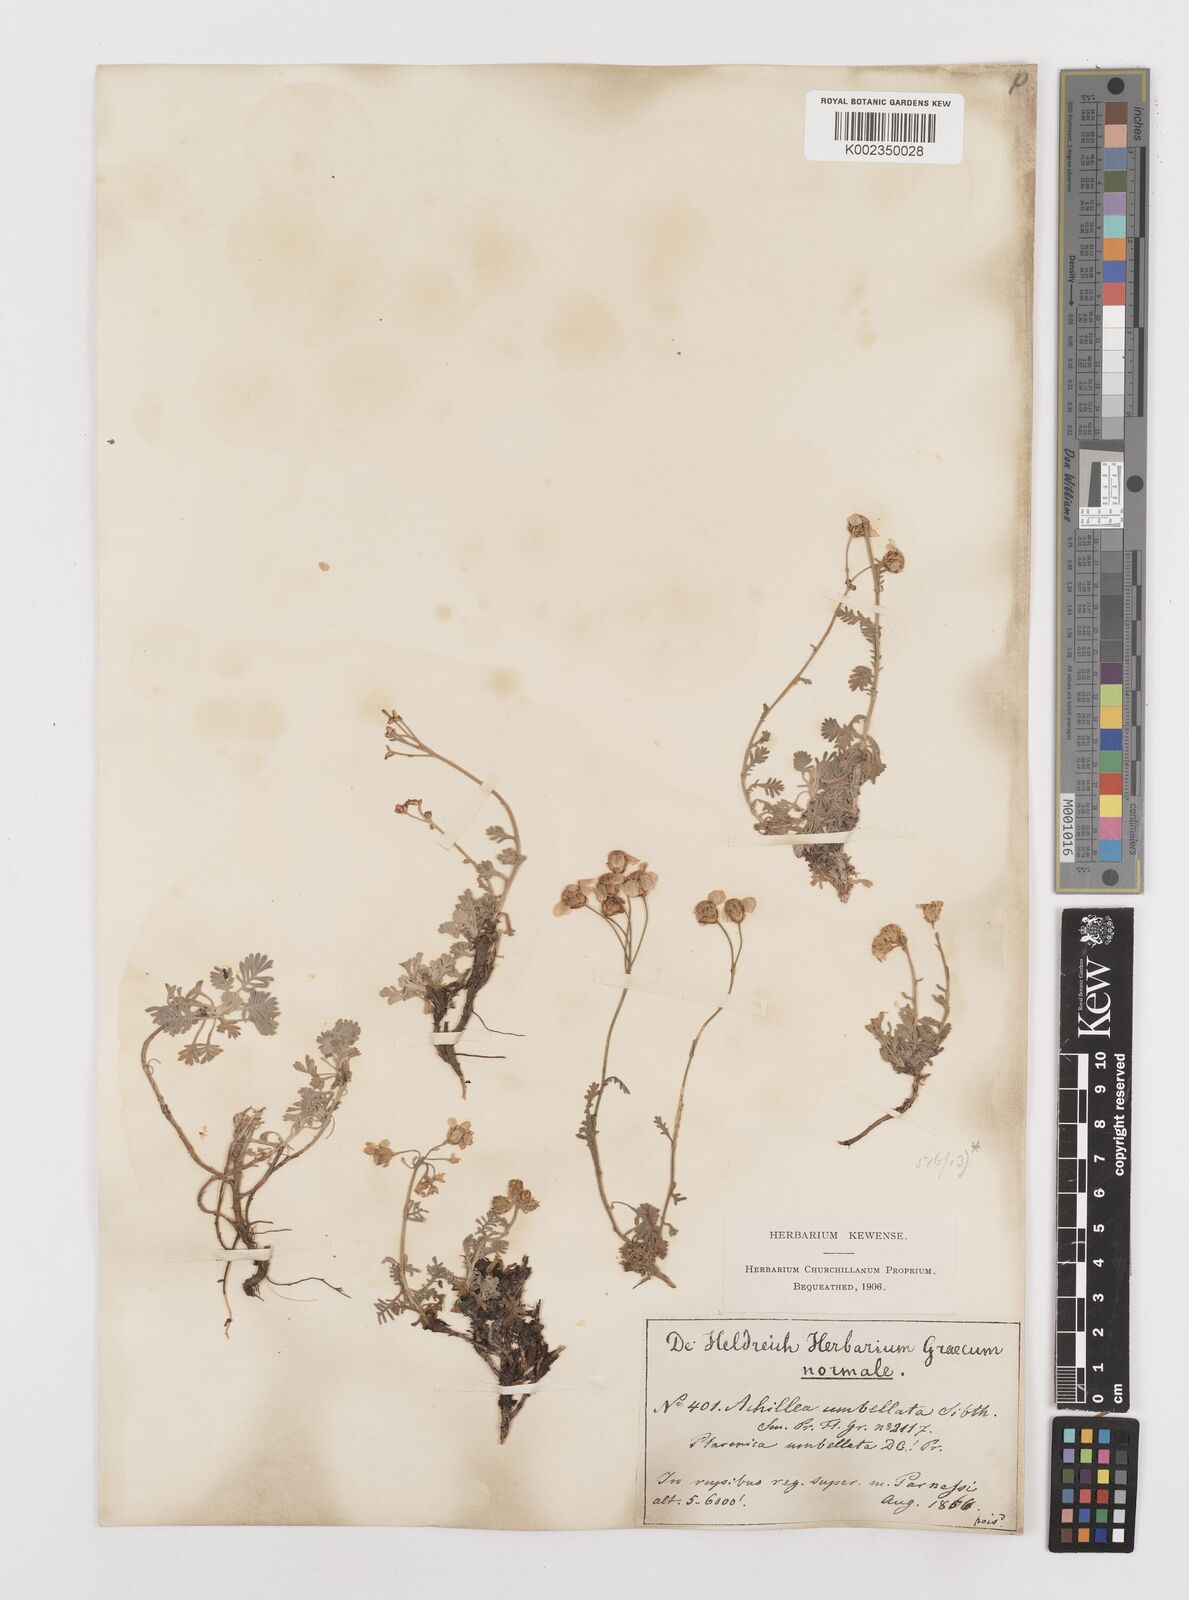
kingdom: Plantae
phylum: Tracheophyta
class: Magnoliopsida
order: Asterales
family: Asteraceae
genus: Achillea
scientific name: Achillea umbellata
